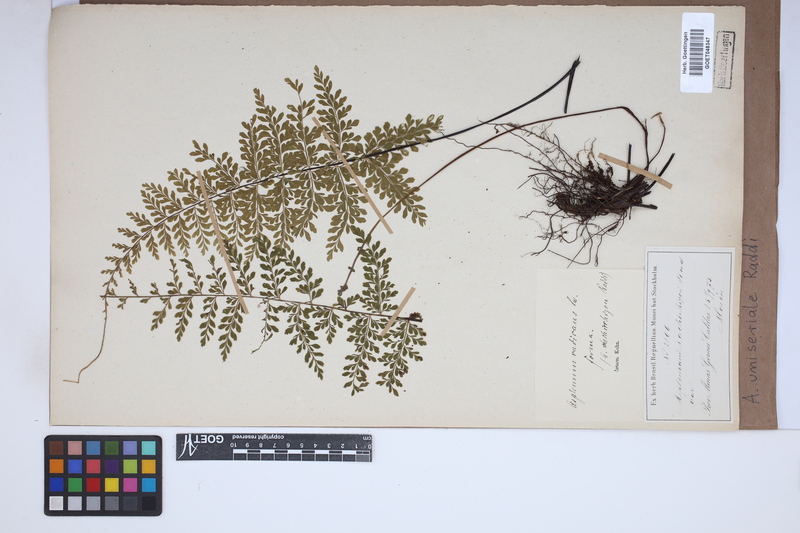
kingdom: Plantae
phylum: Tracheophyta
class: Polypodiopsida
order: Polypodiales
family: Aspleniaceae
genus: Asplenium
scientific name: Asplenium uniseriale
